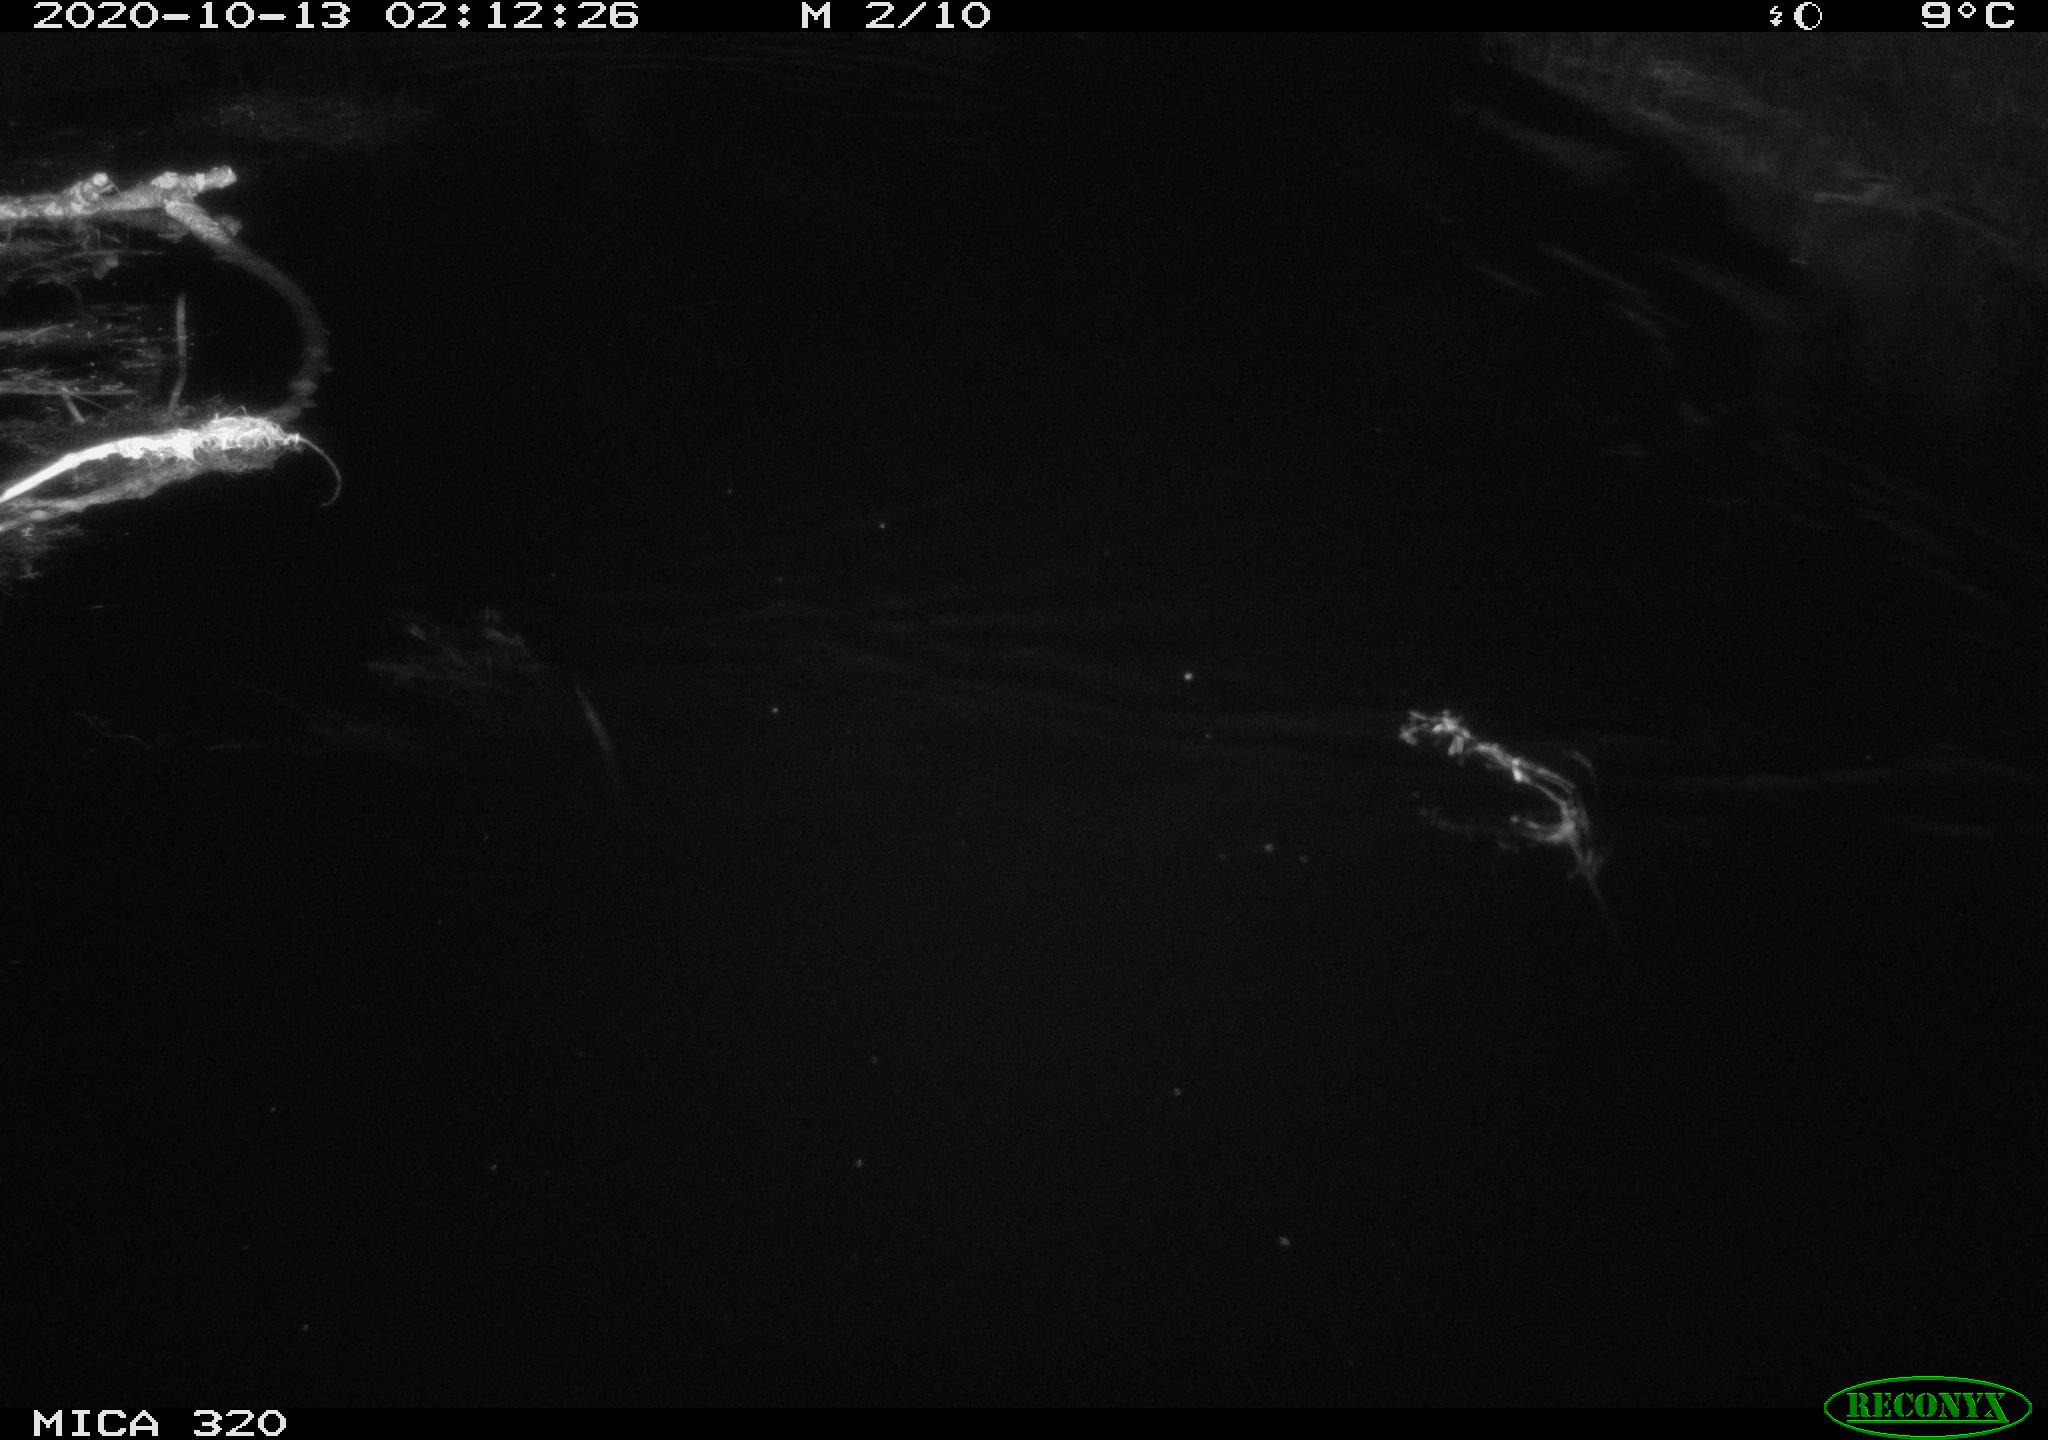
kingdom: Animalia
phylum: Chordata
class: Aves
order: Gruiformes
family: Rallidae
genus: Gallinula
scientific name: Gallinula chloropus
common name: Common moorhen
